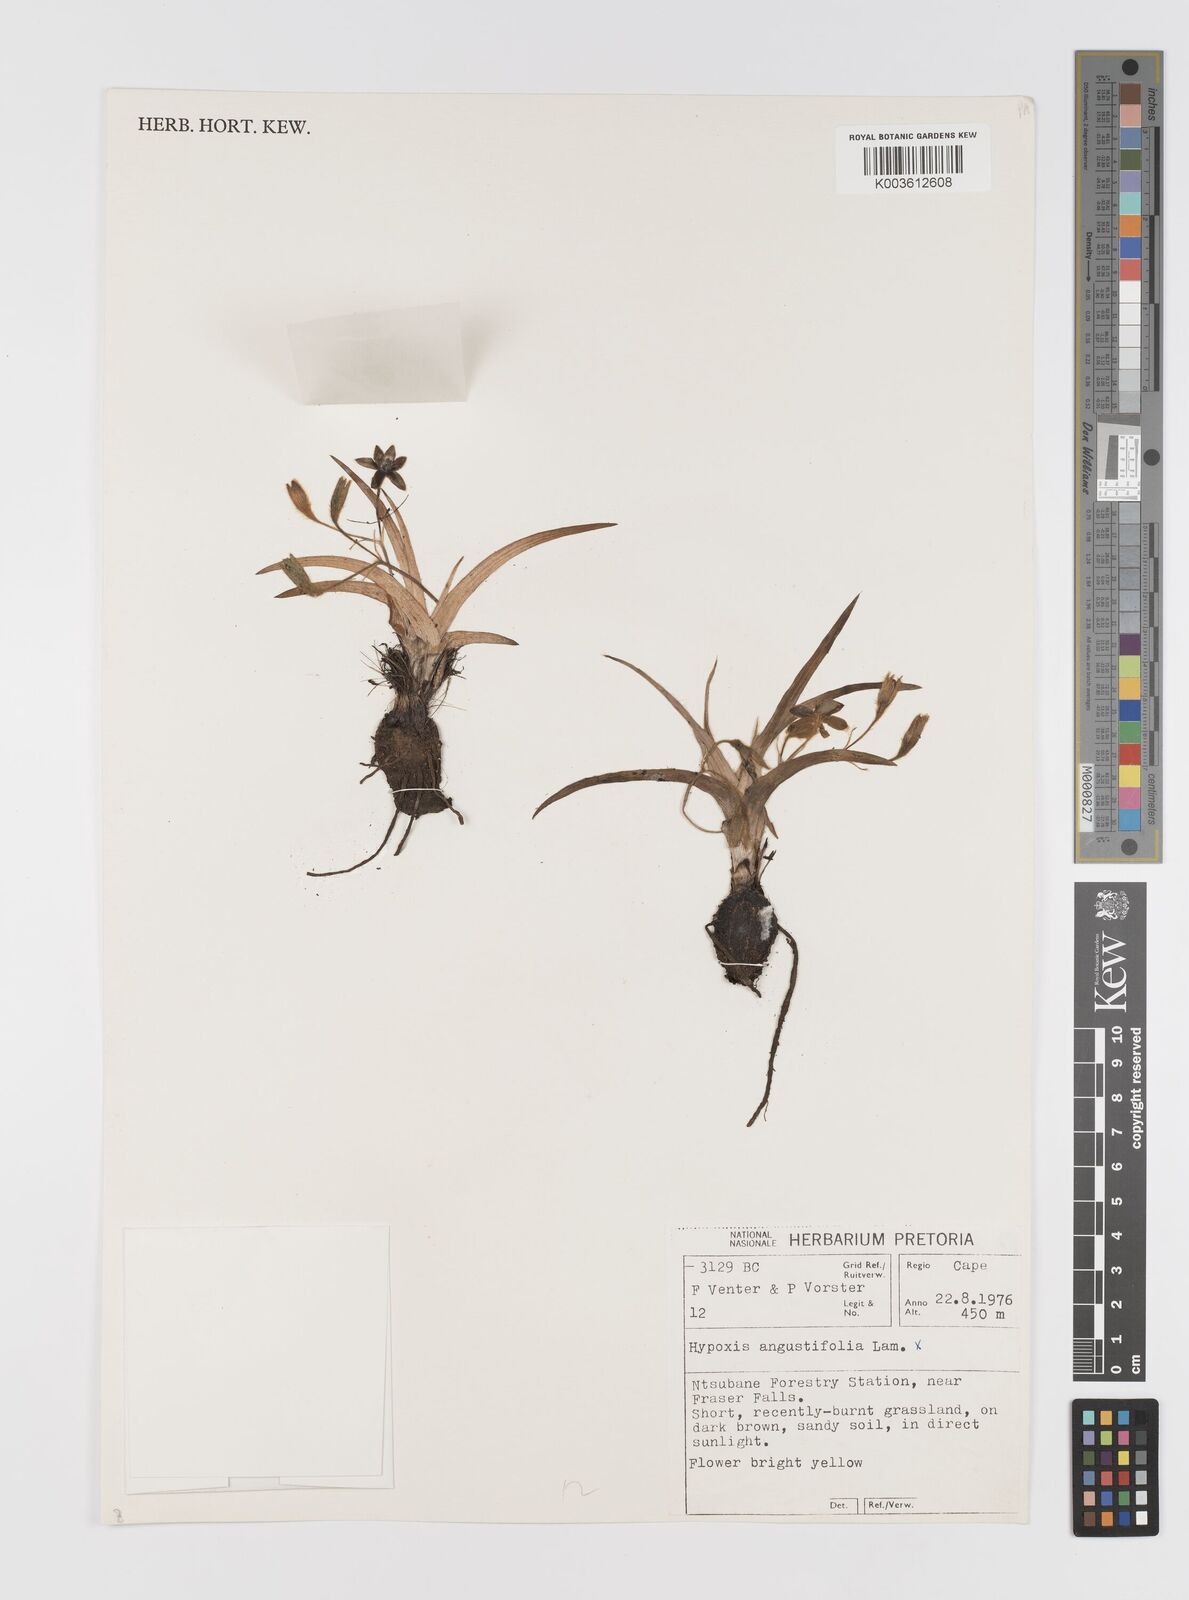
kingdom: Plantae
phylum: Tracheophyta
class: Liliopsida
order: Asparagales
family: Hypoxidaceae
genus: Hypoxis
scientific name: Hypoxis angustifolia
